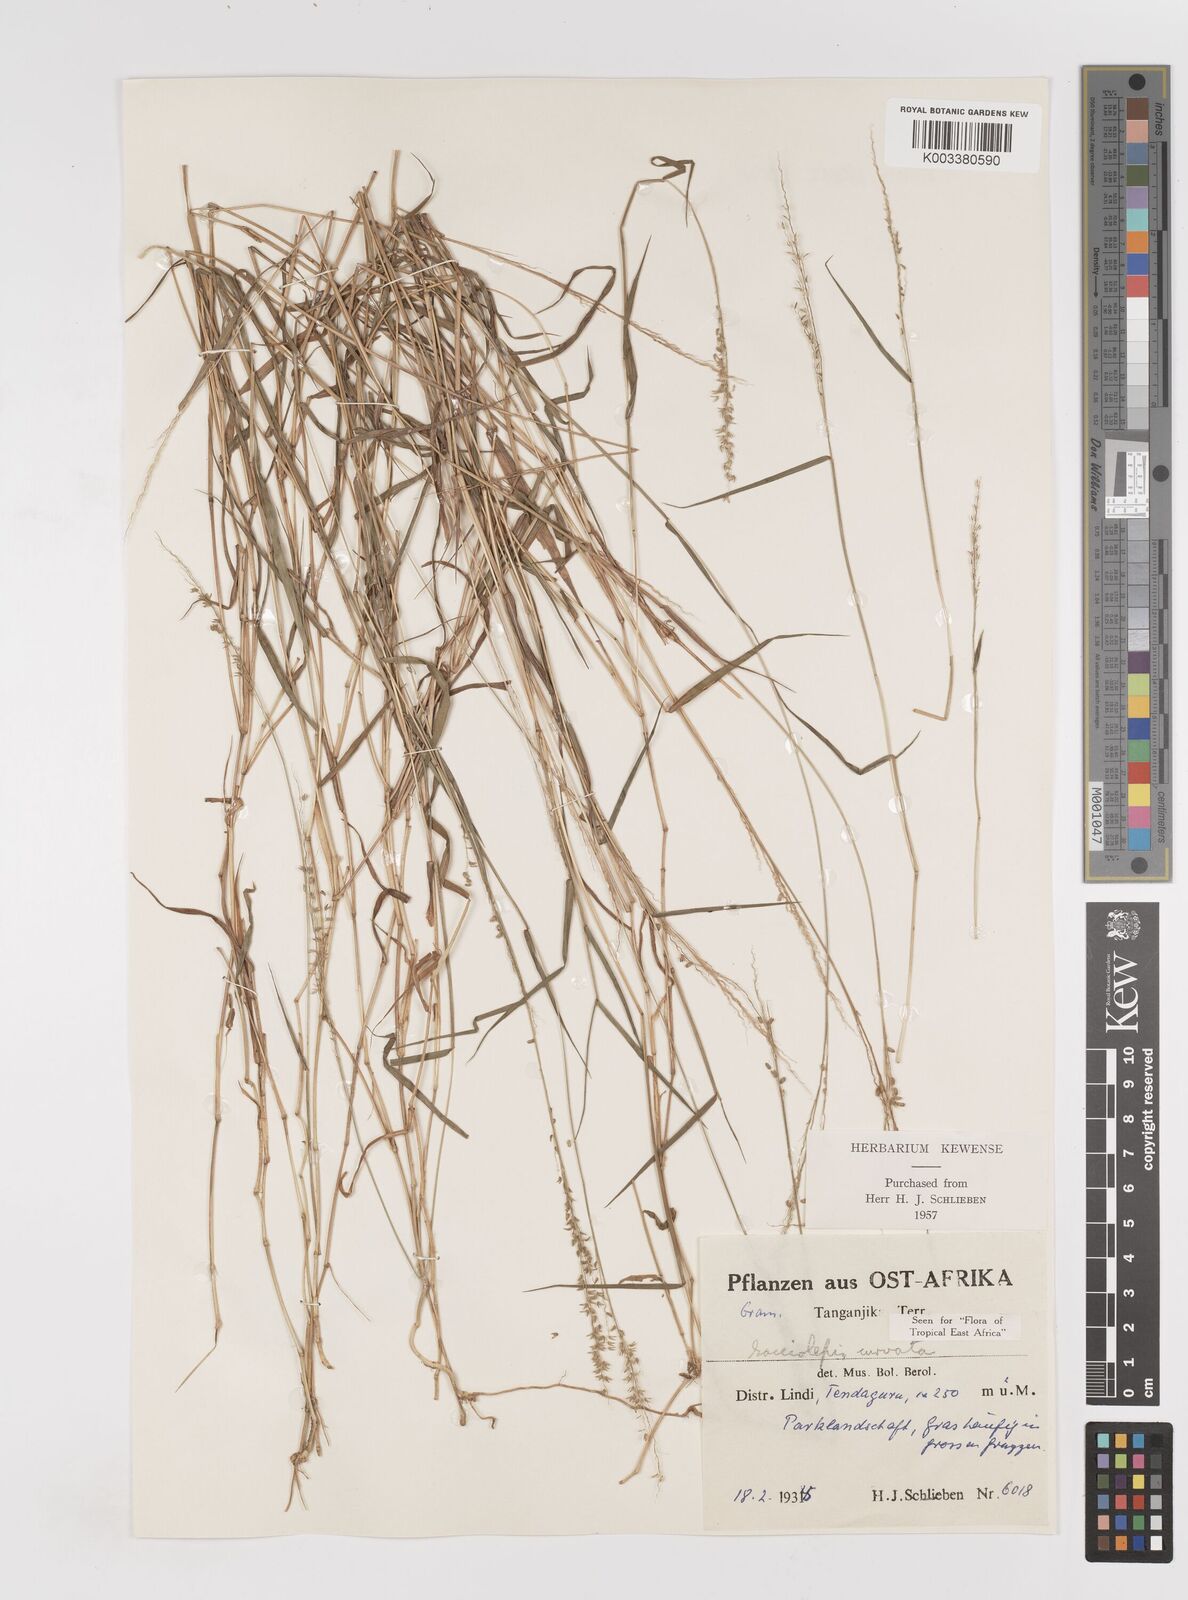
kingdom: Plantae
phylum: Tracheophyta
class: Liliopsida
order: Poales
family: Poaceae
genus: Sacciolepis
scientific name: Sacciolepis curvata
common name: Forest hood grass
